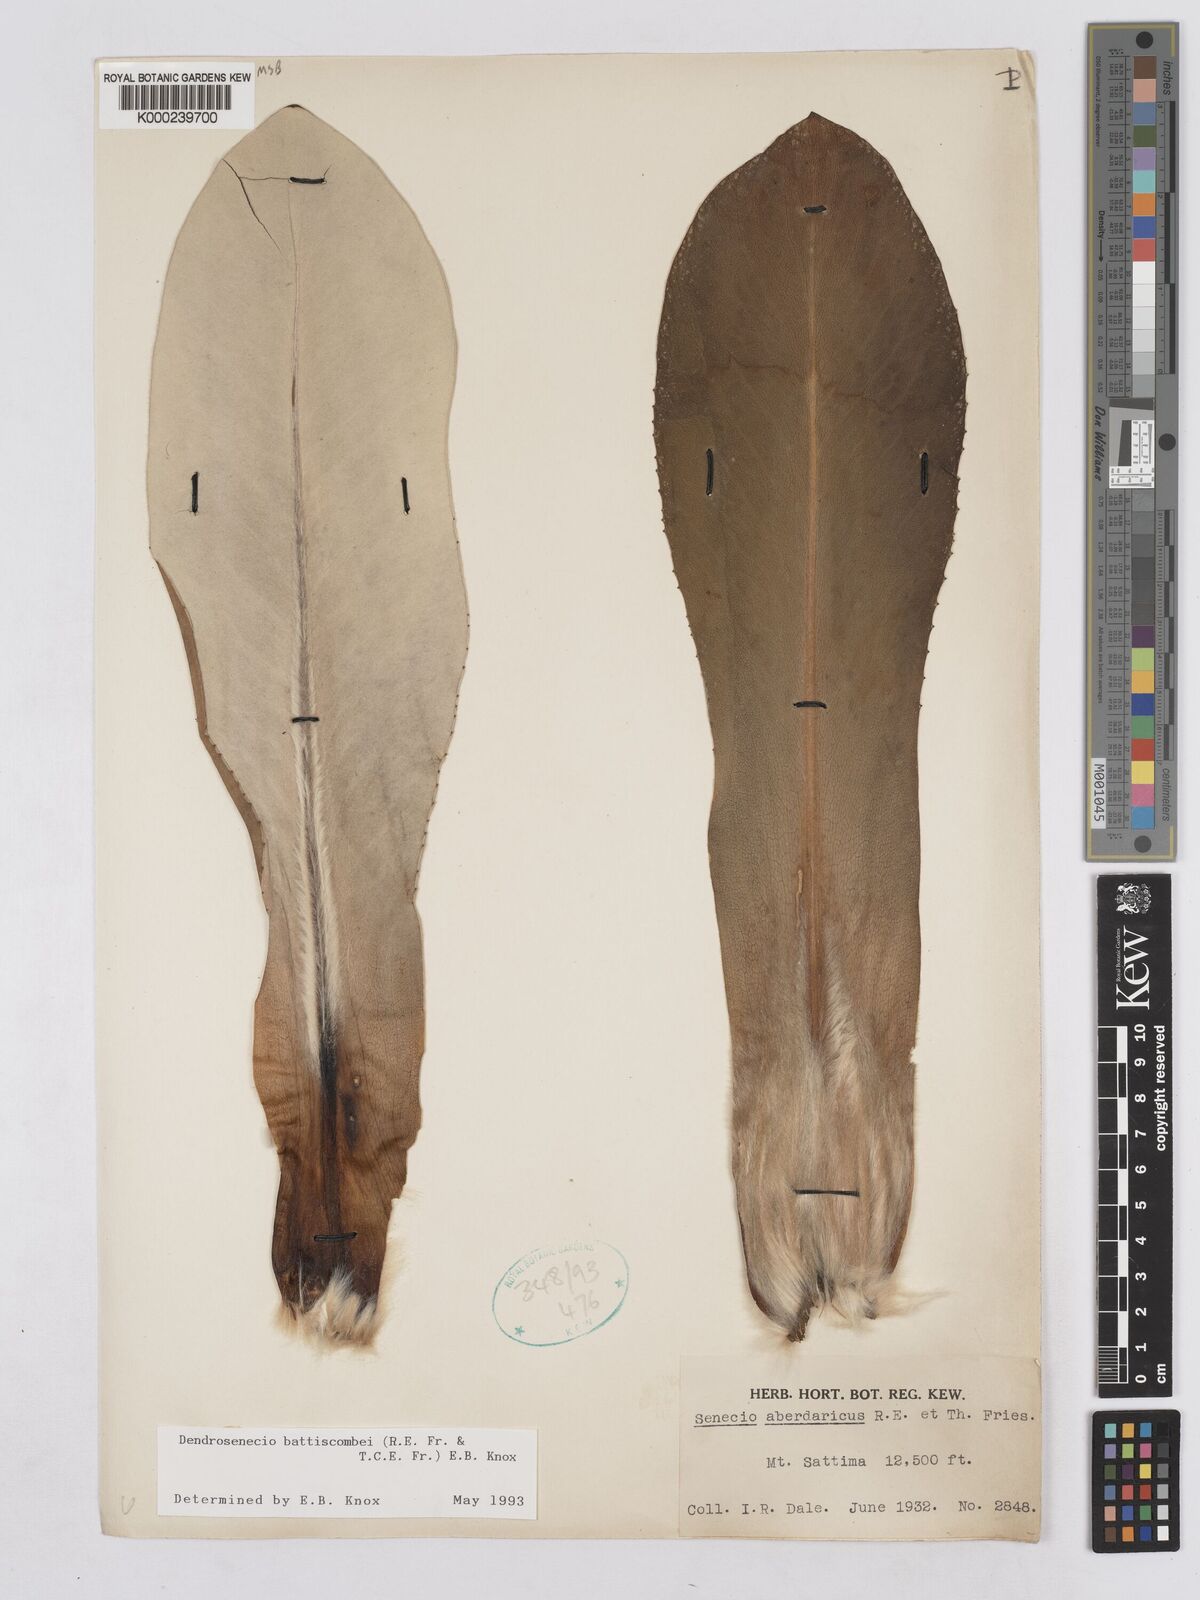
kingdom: Plantae
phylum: Tracheophyta
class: Magnoliopsida
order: Asterales
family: Asteraceae
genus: Dendrosenecio
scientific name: Dendrosenecio battiscombei
